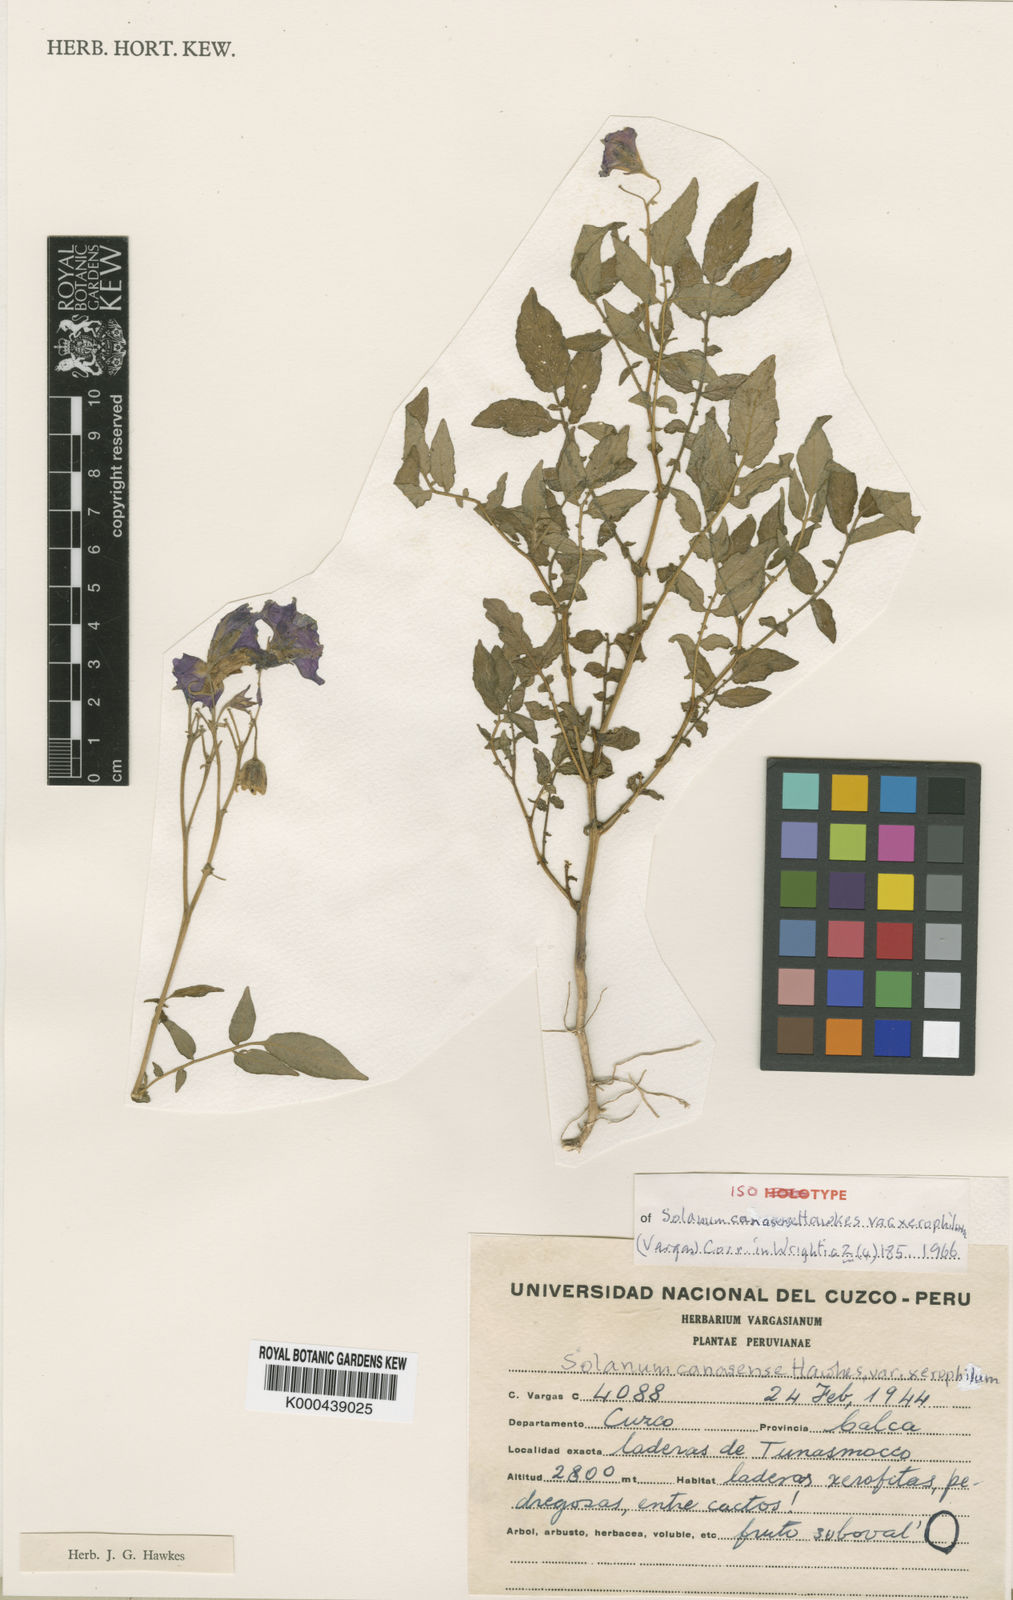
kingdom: Plantae
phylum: Tracheophyta
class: Magnoliopsida
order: Solanales
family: Solanaceae
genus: Solanum
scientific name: Solanum candolleanum
